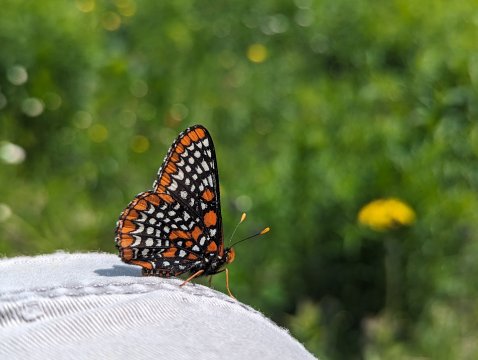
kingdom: Animalia
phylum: Arthropoda
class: Insecta
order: Lepidoptera
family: Nymphalidae
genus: Euphydryas
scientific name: Euphydryas phaeton
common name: Baltimore Checkerspot
